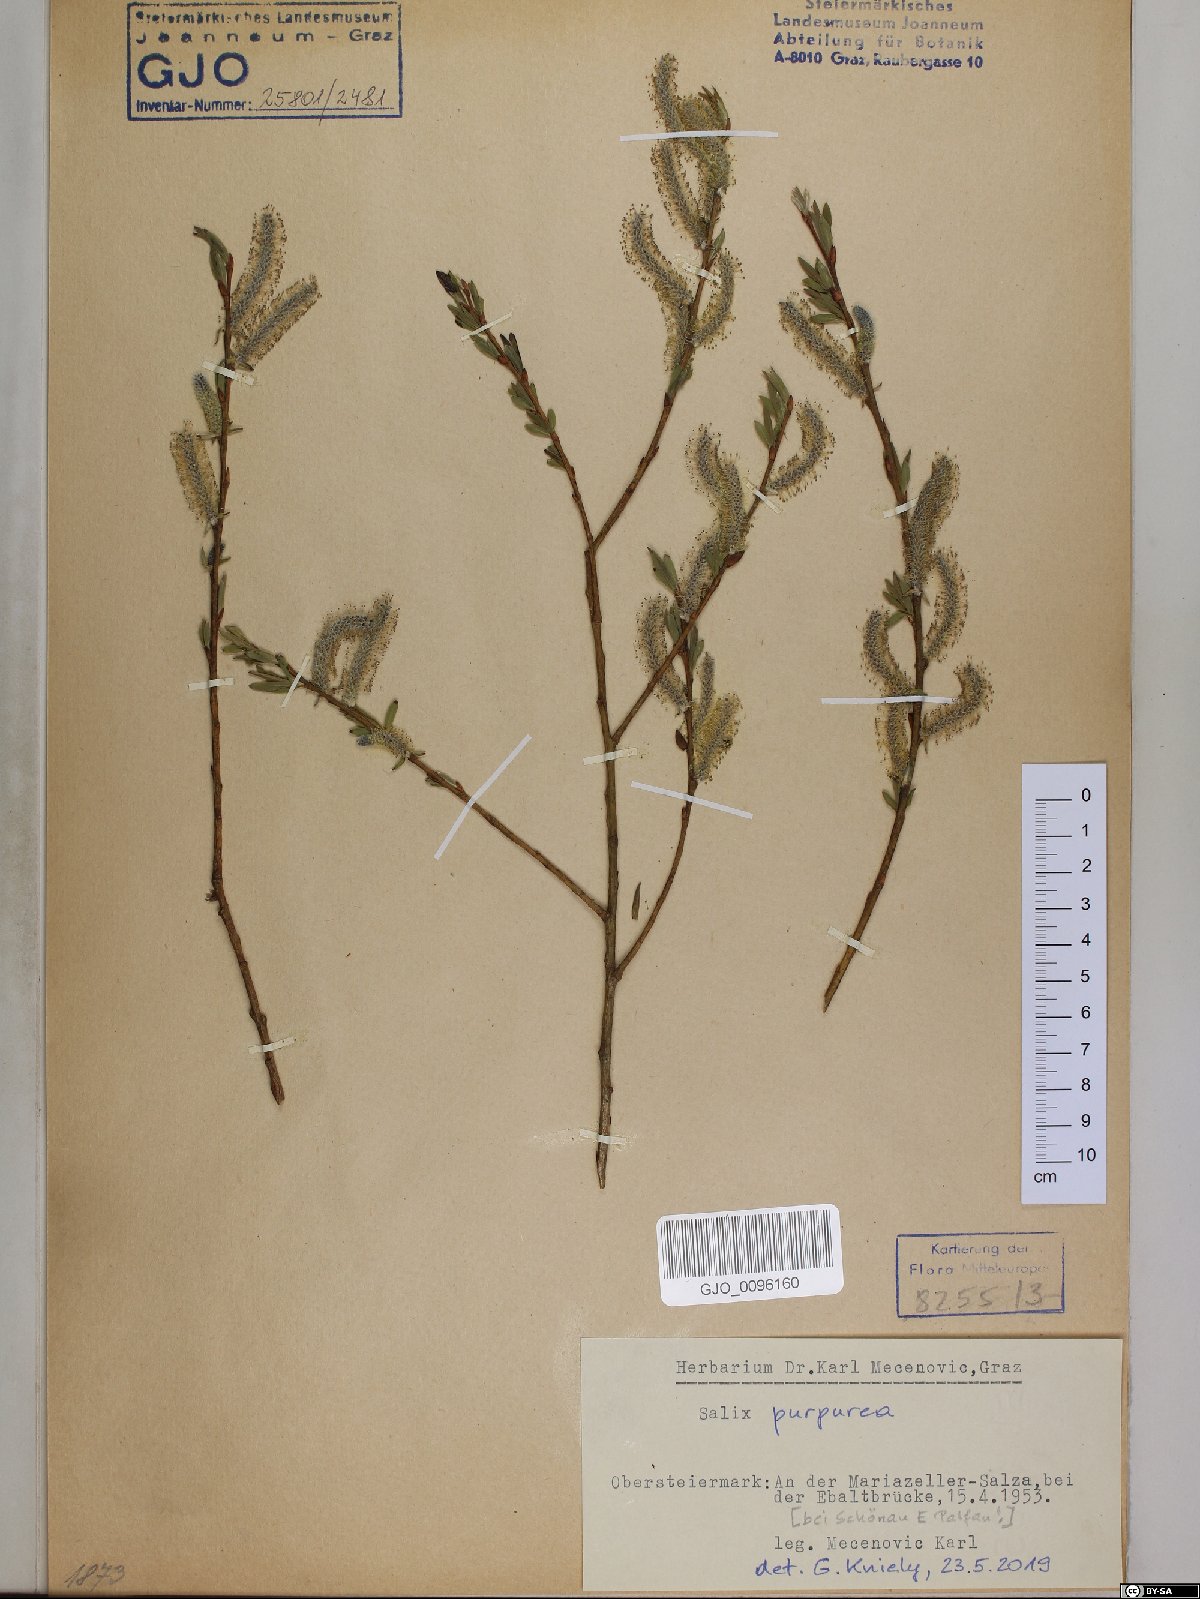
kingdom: Plantae
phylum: Tracheophyta
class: Magnoliopsida
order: Malpighiales
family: Salicaceae
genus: Salix
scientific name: Salix purpurea
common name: Purple willow
